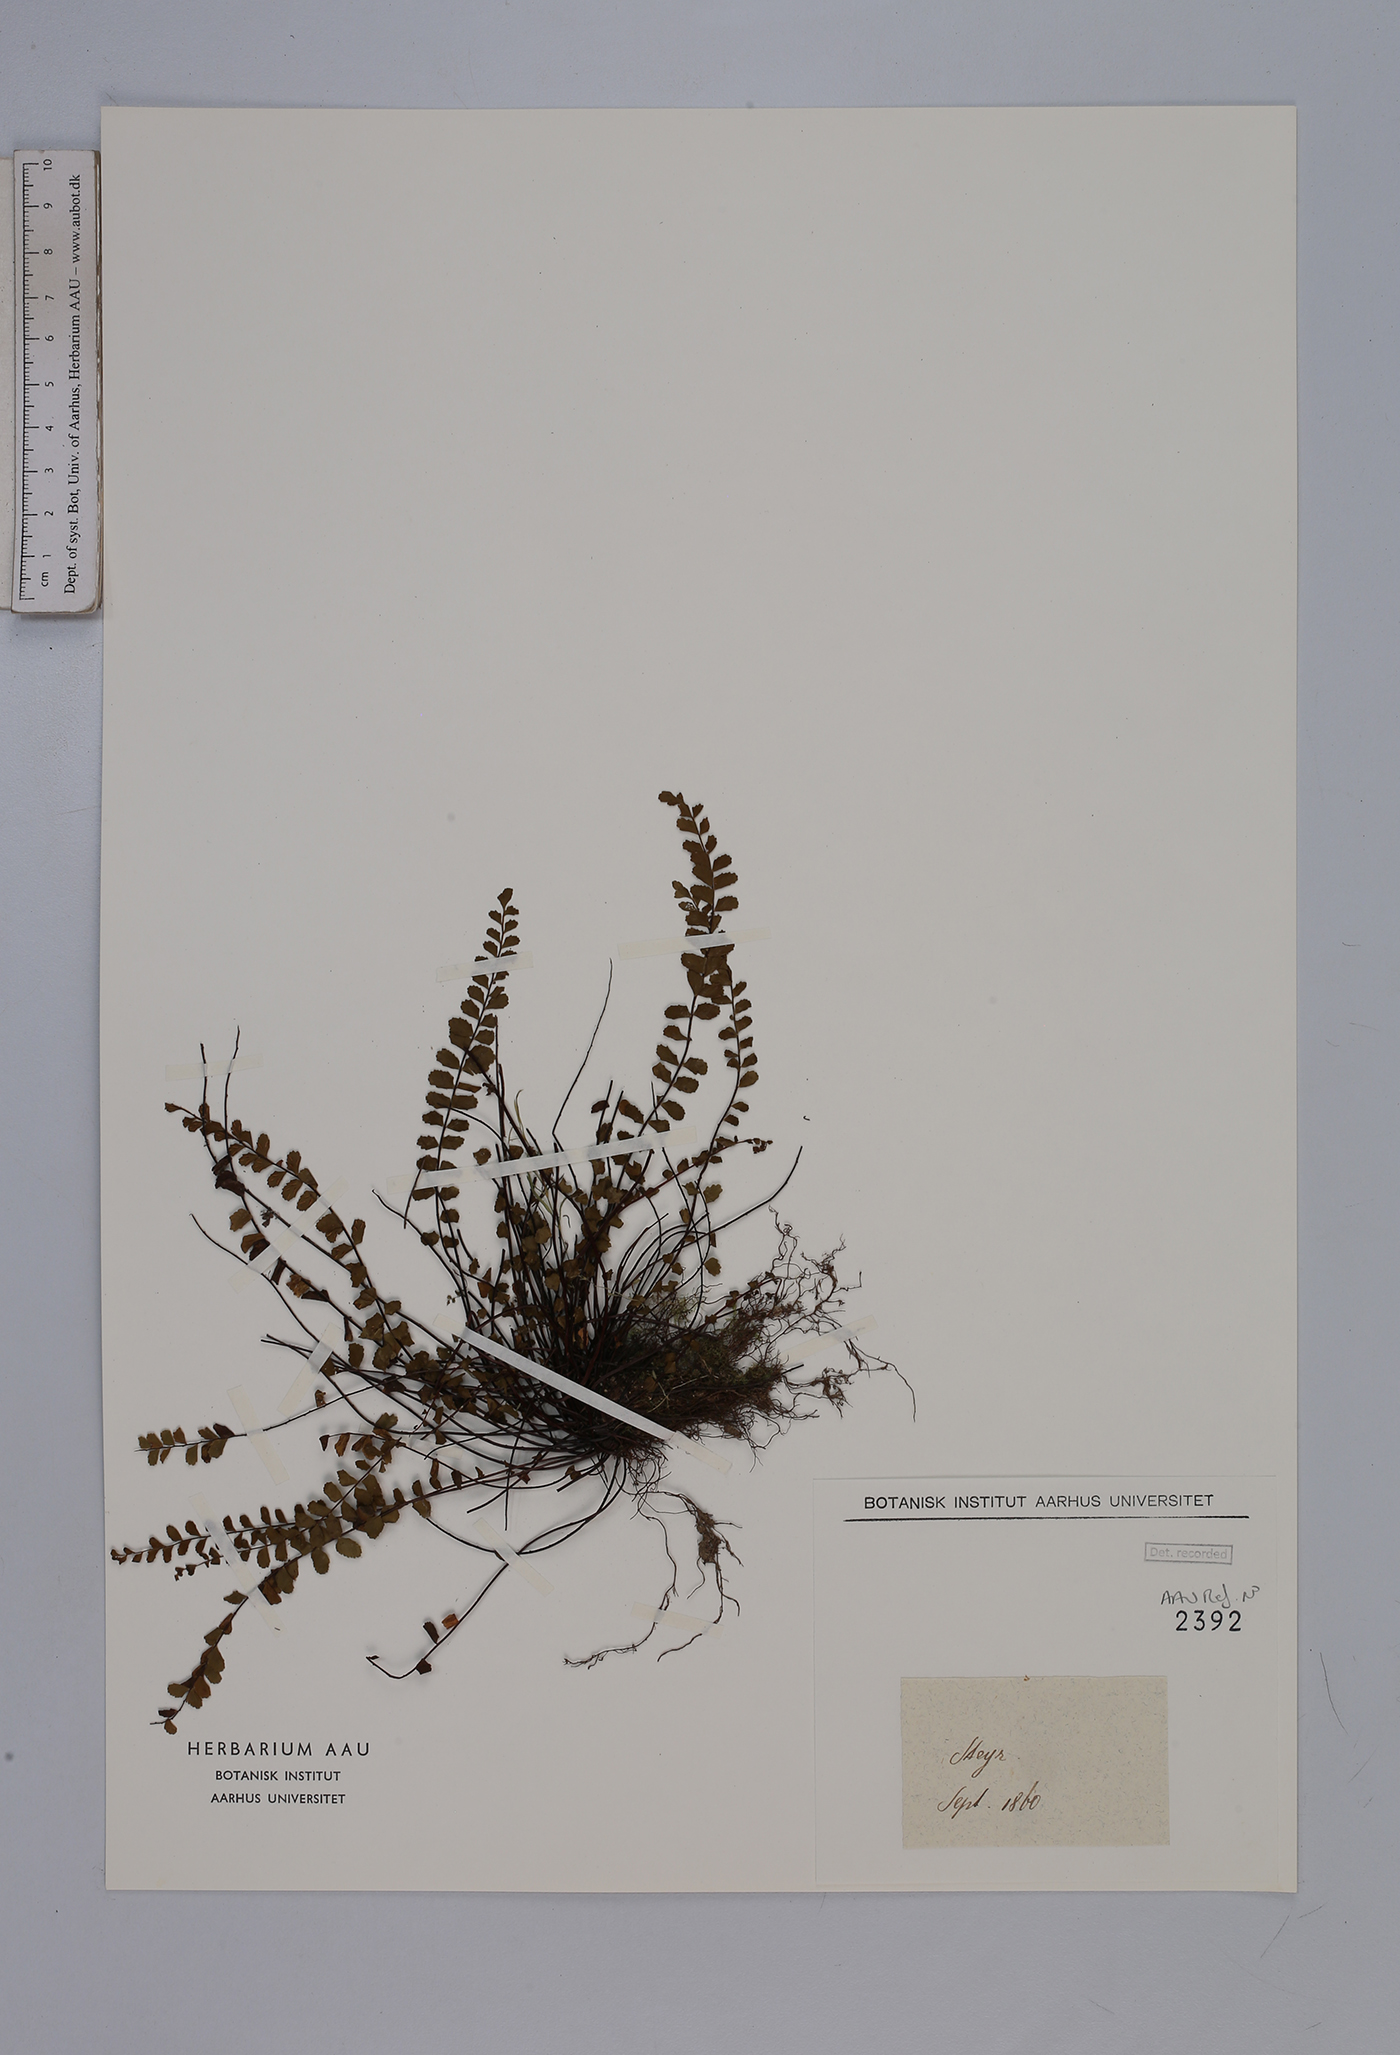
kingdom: Plantae
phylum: Tracheophyta
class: Polypodiopsida
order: Polypodiales
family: Aspleniaceae
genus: Asplenium
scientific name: Asplenium trichomanes
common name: Maidenhair spleenwort
